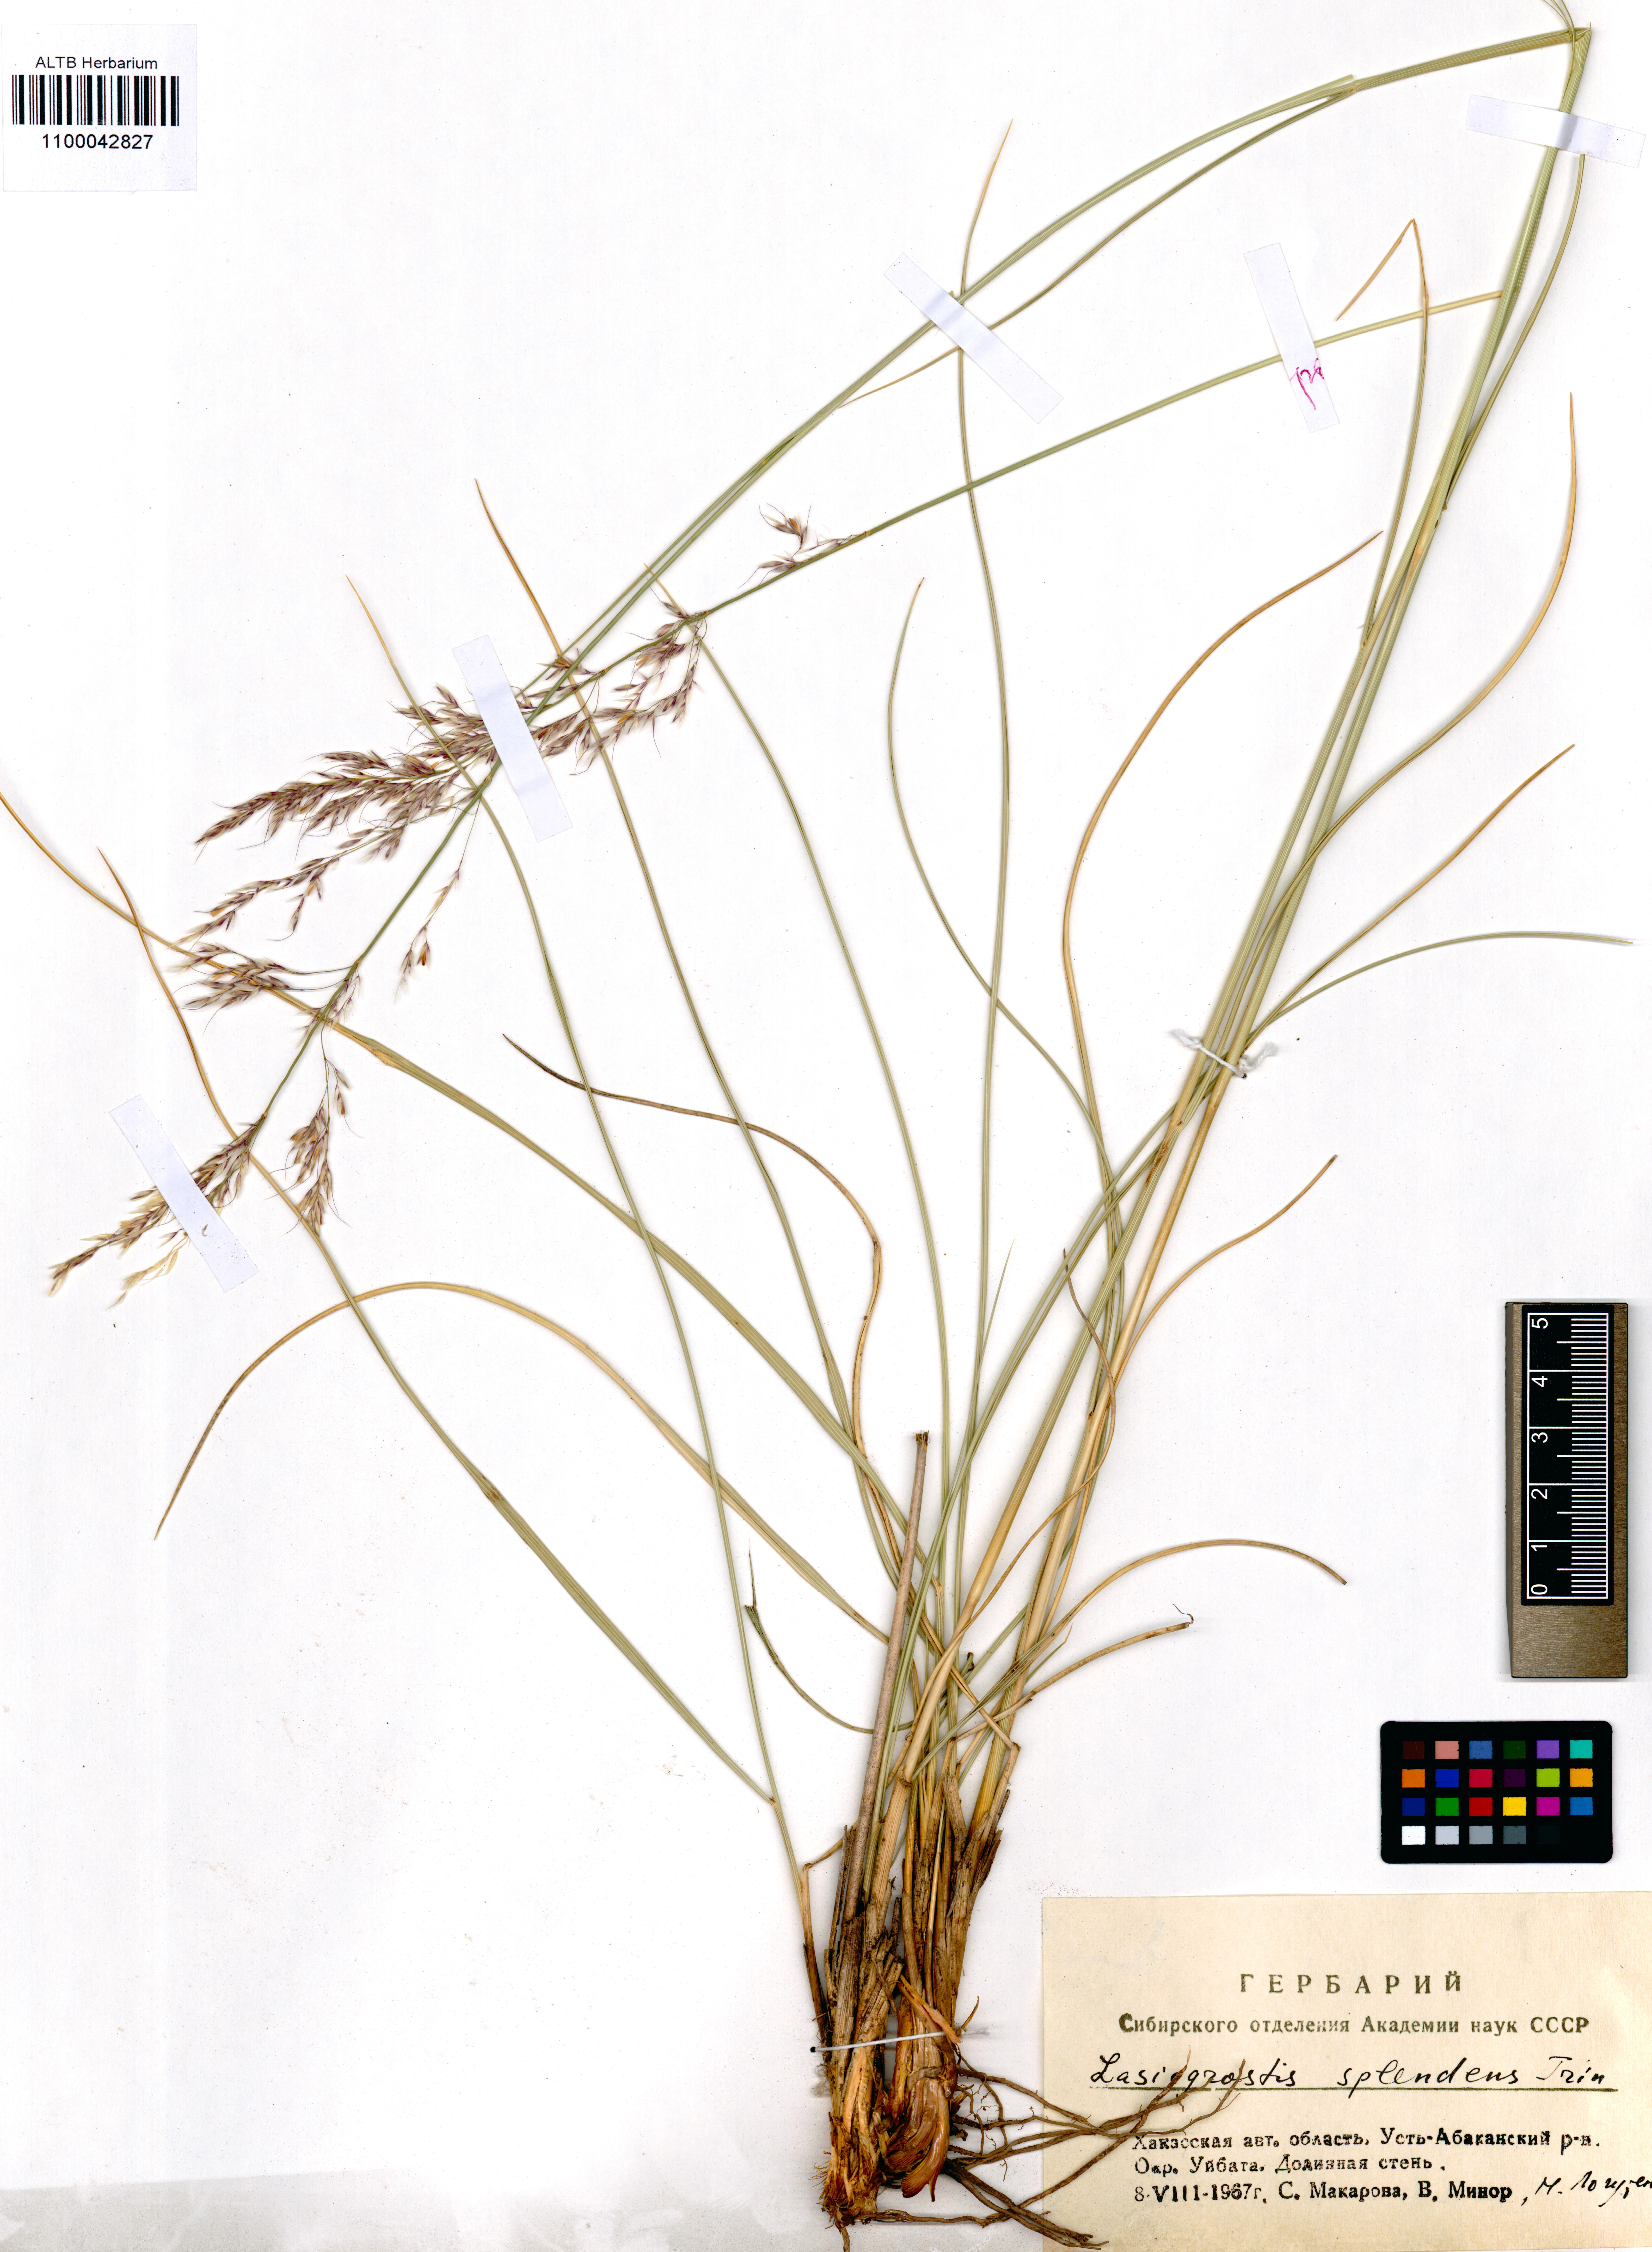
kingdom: Plantae
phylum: Tracheophyta
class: Liliopsida
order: Poales
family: Poaceae
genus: Neotrinia
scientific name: Neotrinia splendens
